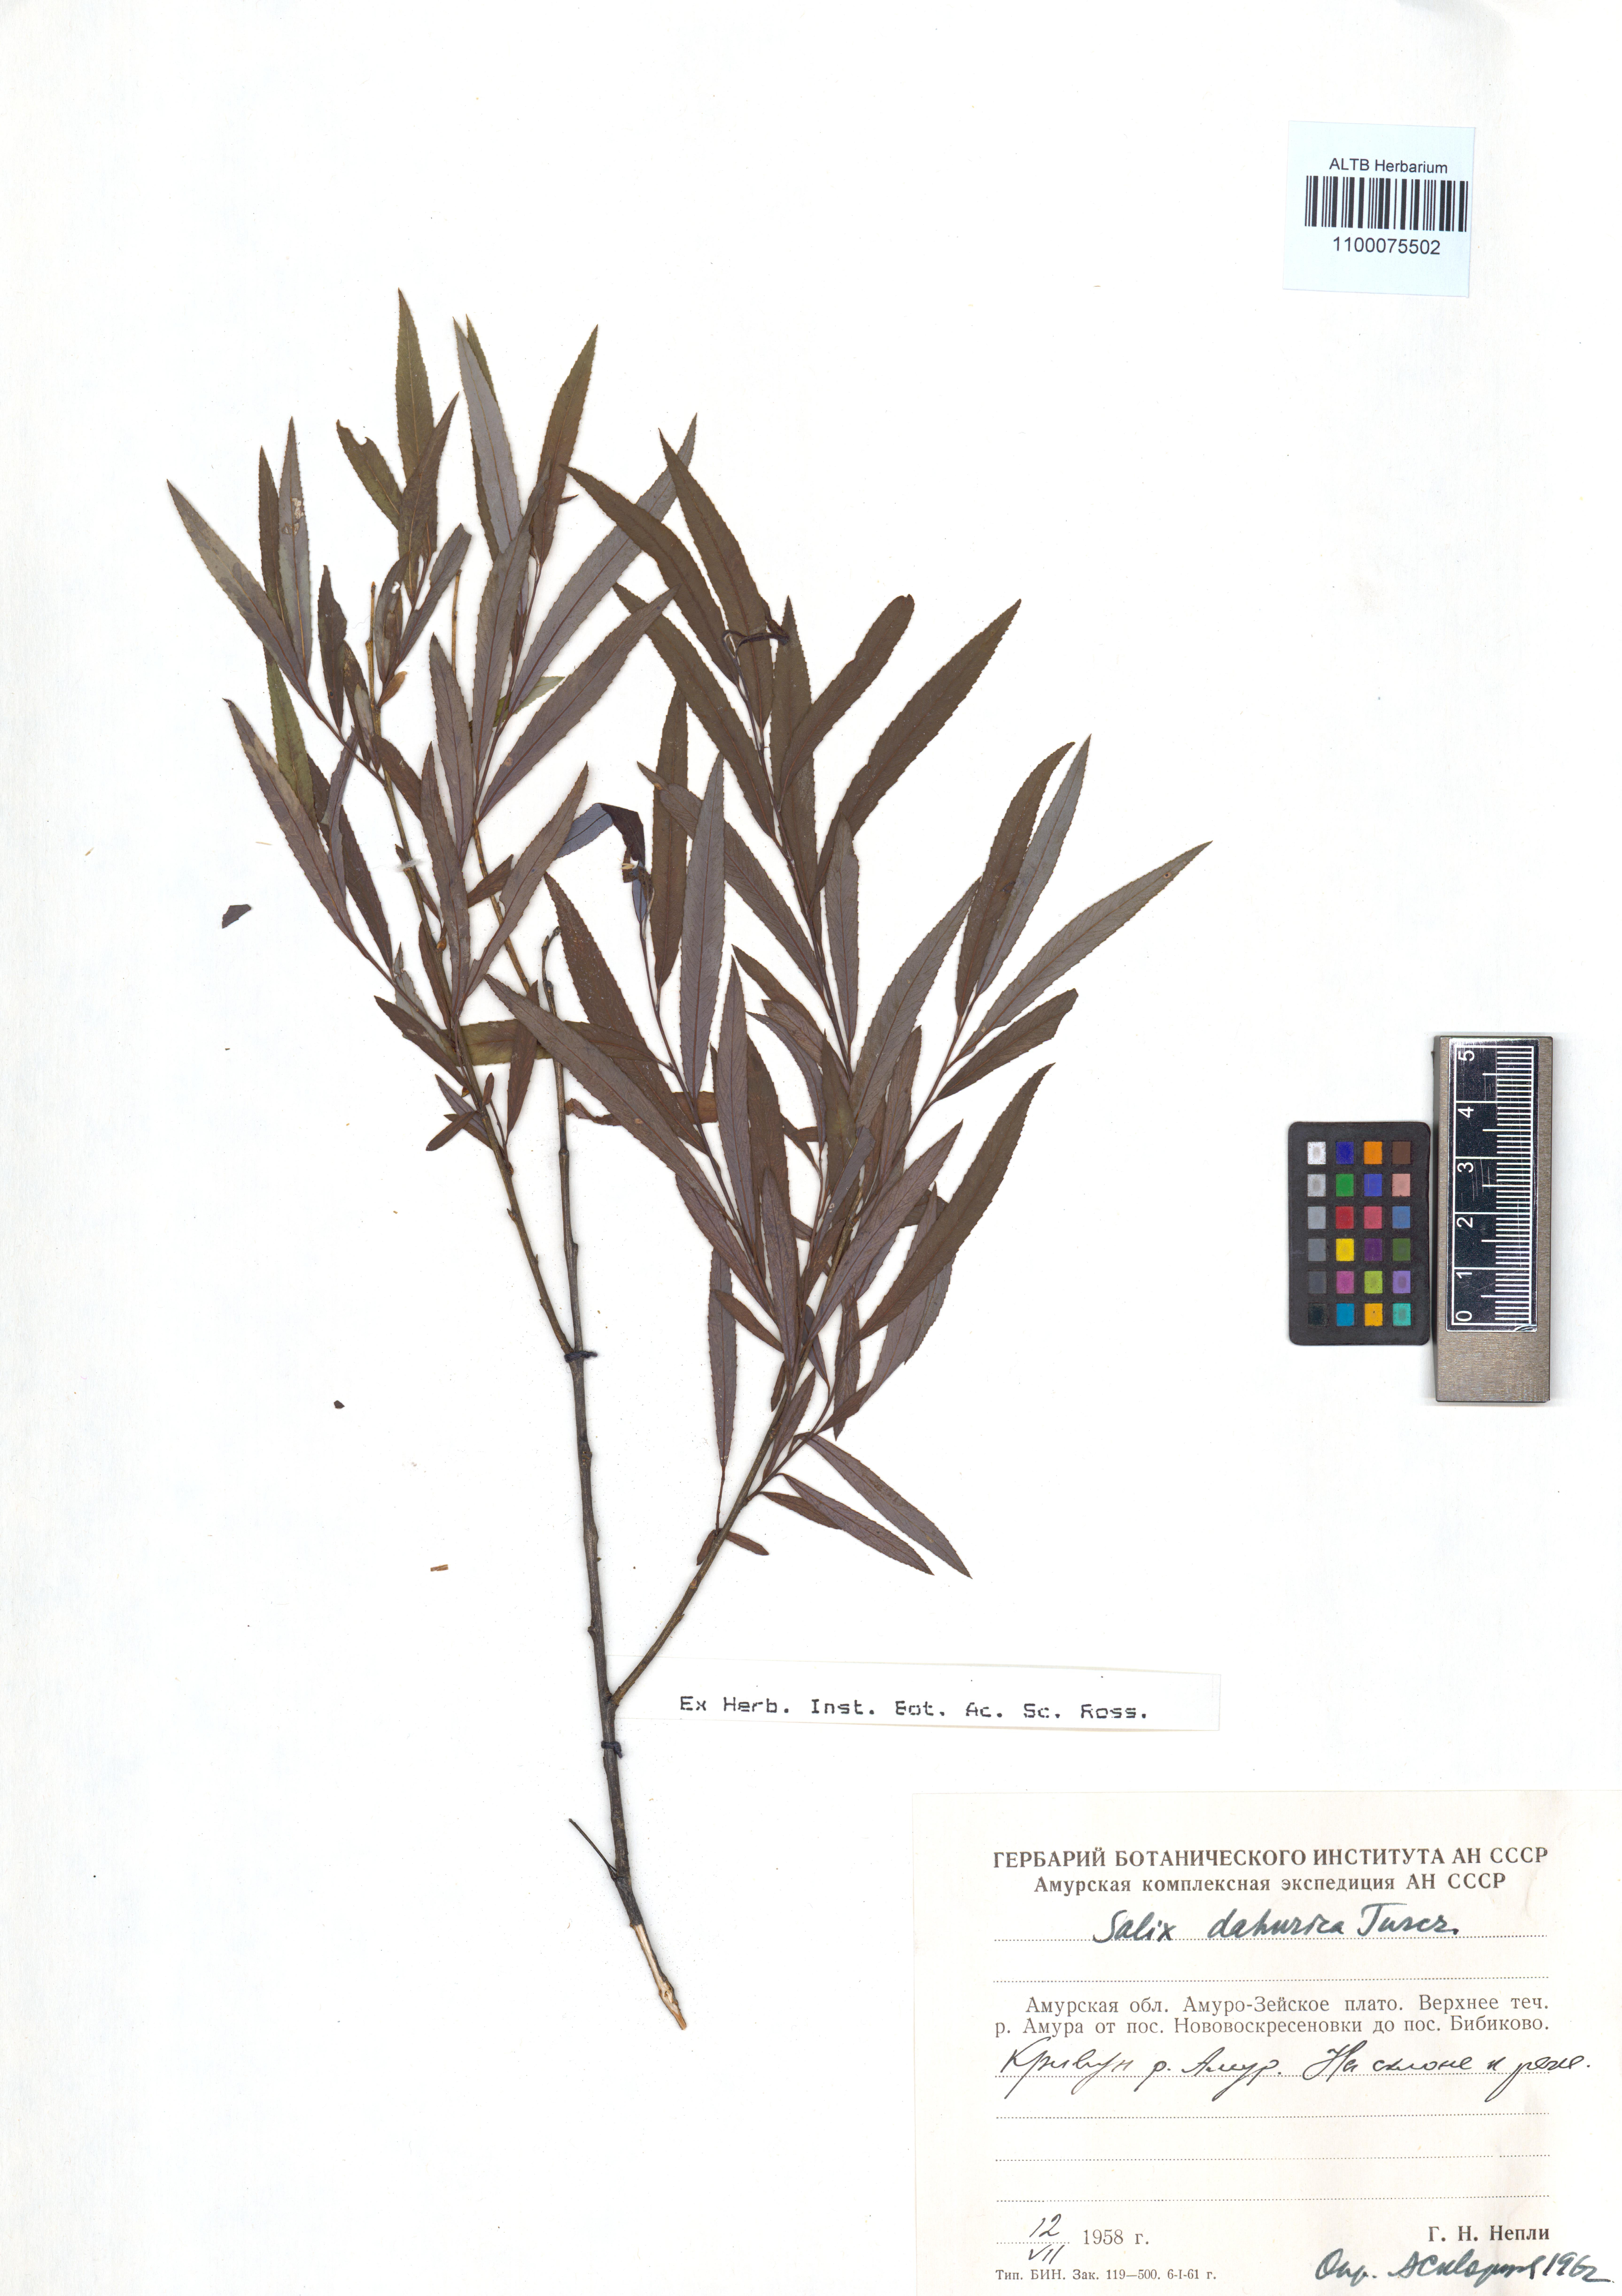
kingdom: Plantae
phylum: Tracheophyta
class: Magnoliopsida
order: Malpighiales
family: Salicaceae
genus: Salix
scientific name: Salix purpurea
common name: Purple willow
